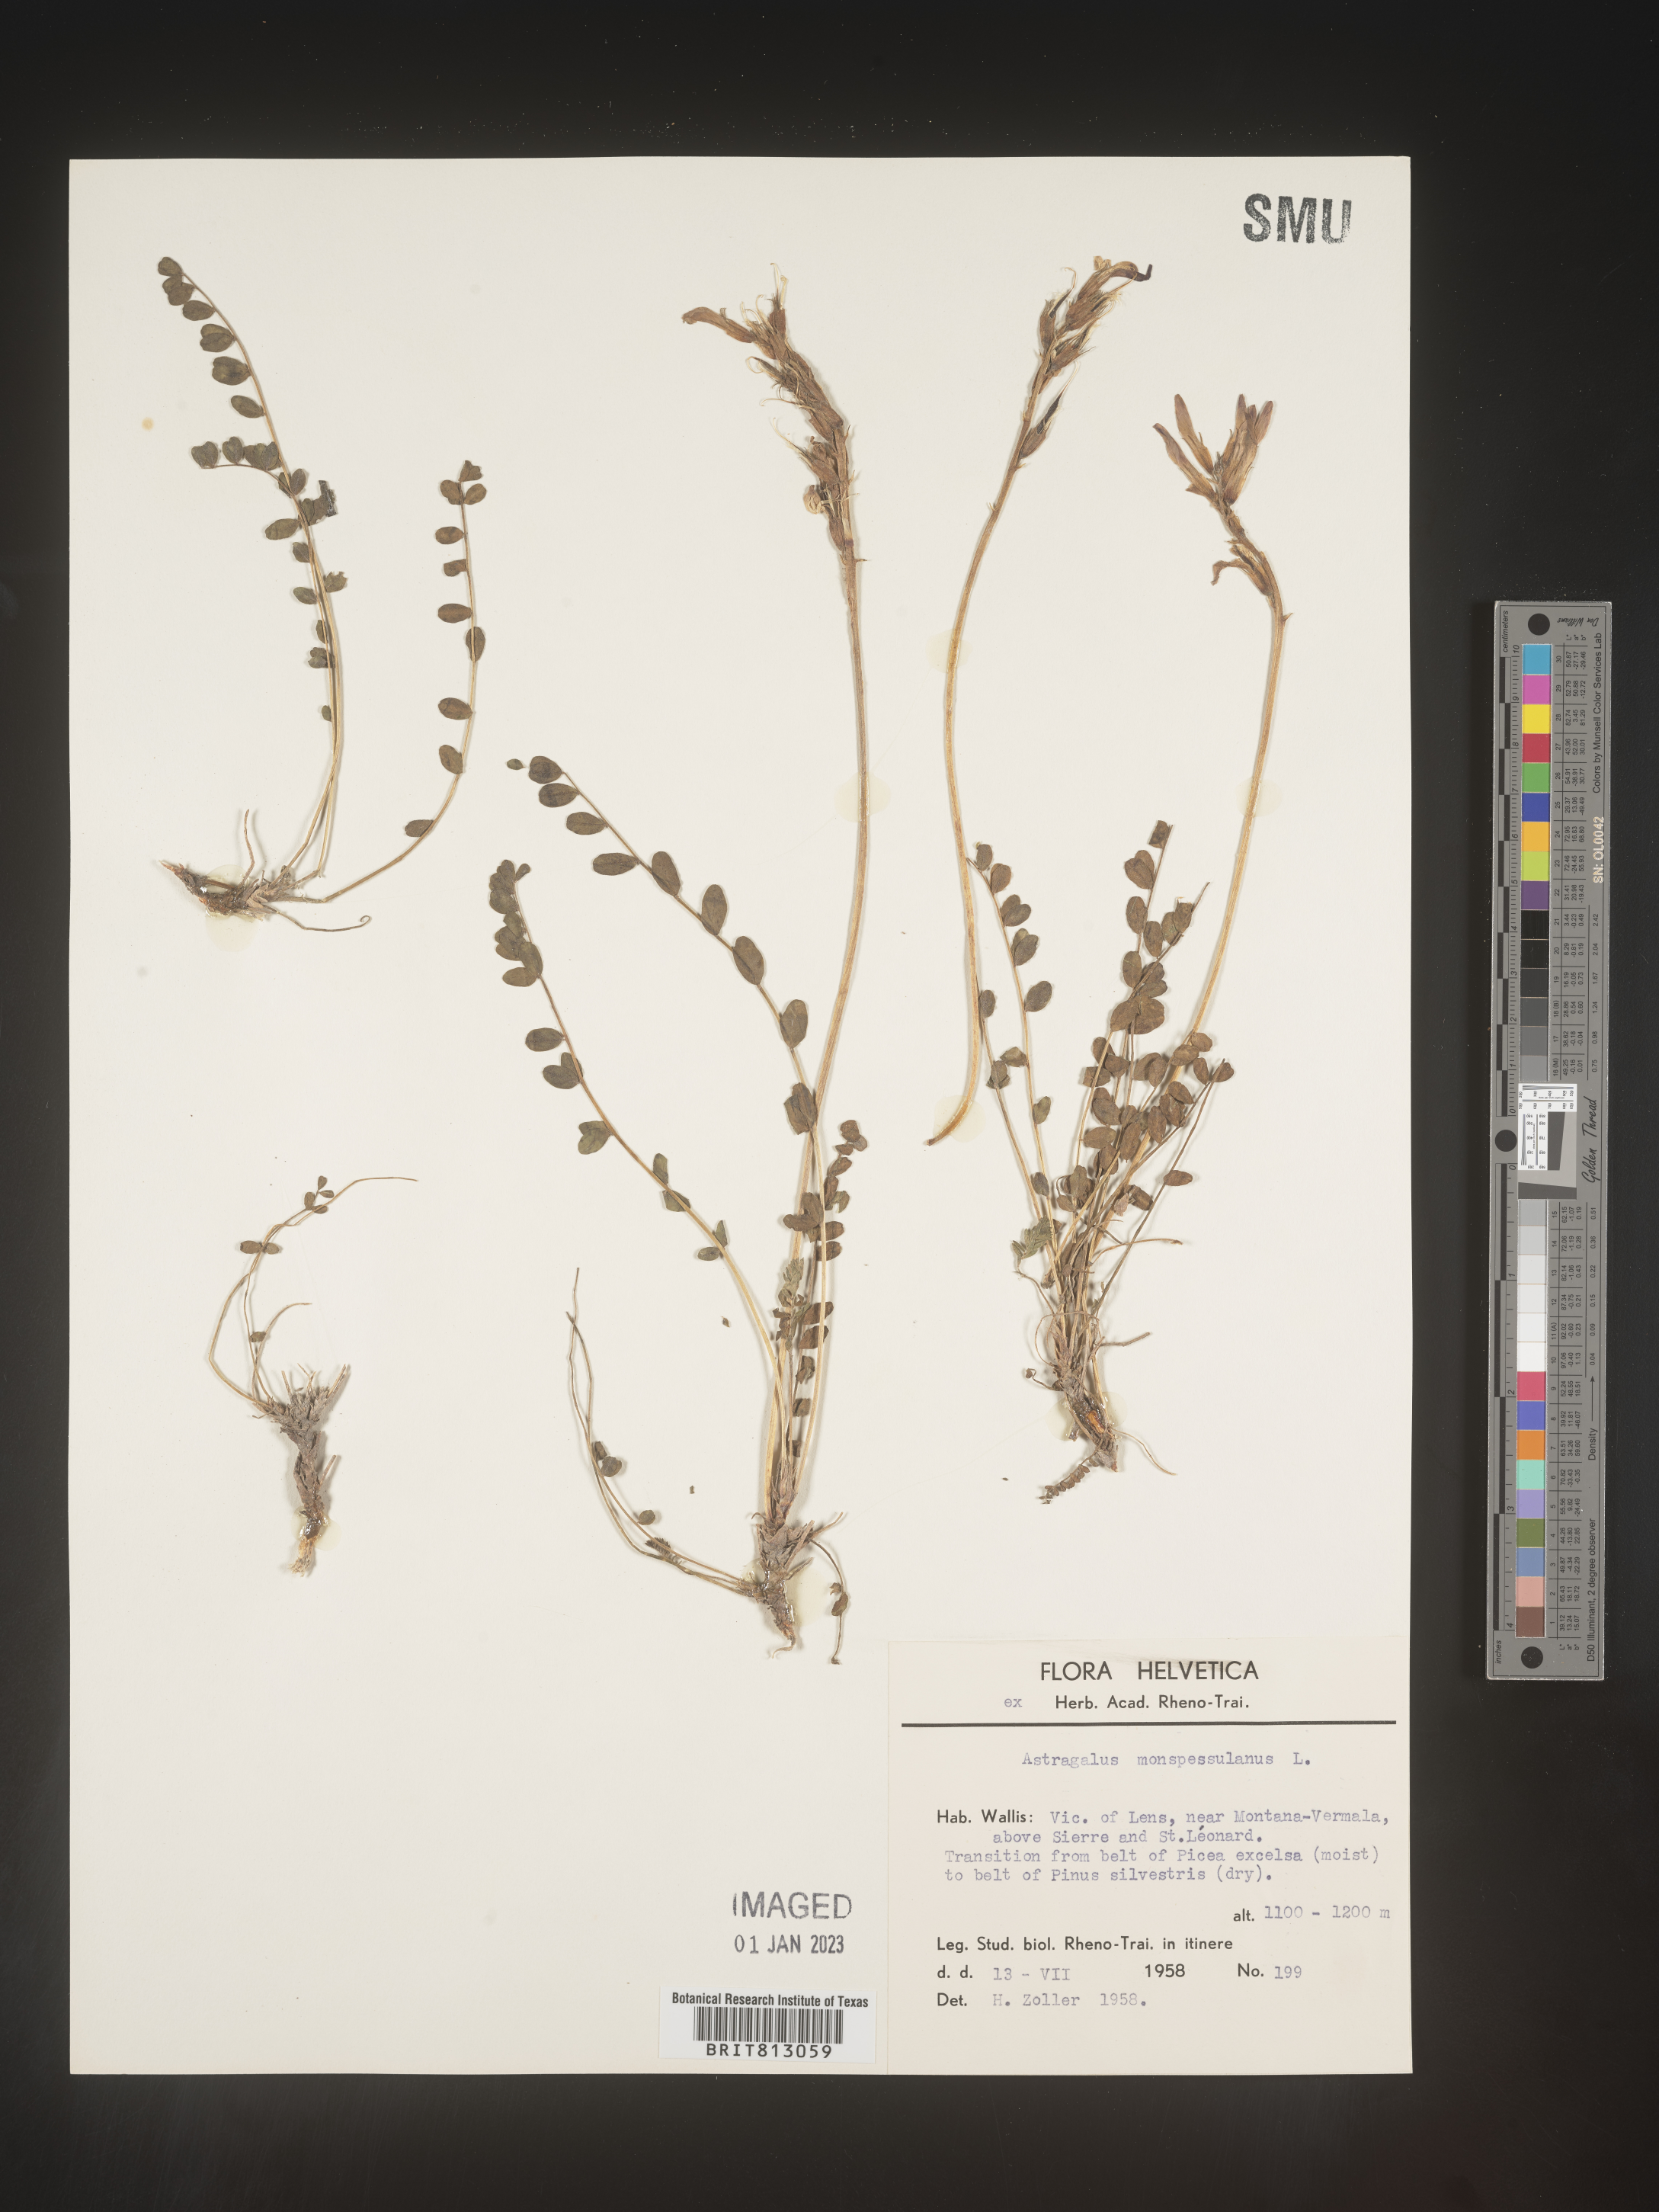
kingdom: Plantae
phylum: Tracheophyta
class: Magnoliopsida
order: Fabales
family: Fabaceae
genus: Astragalus
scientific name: Astragalus
